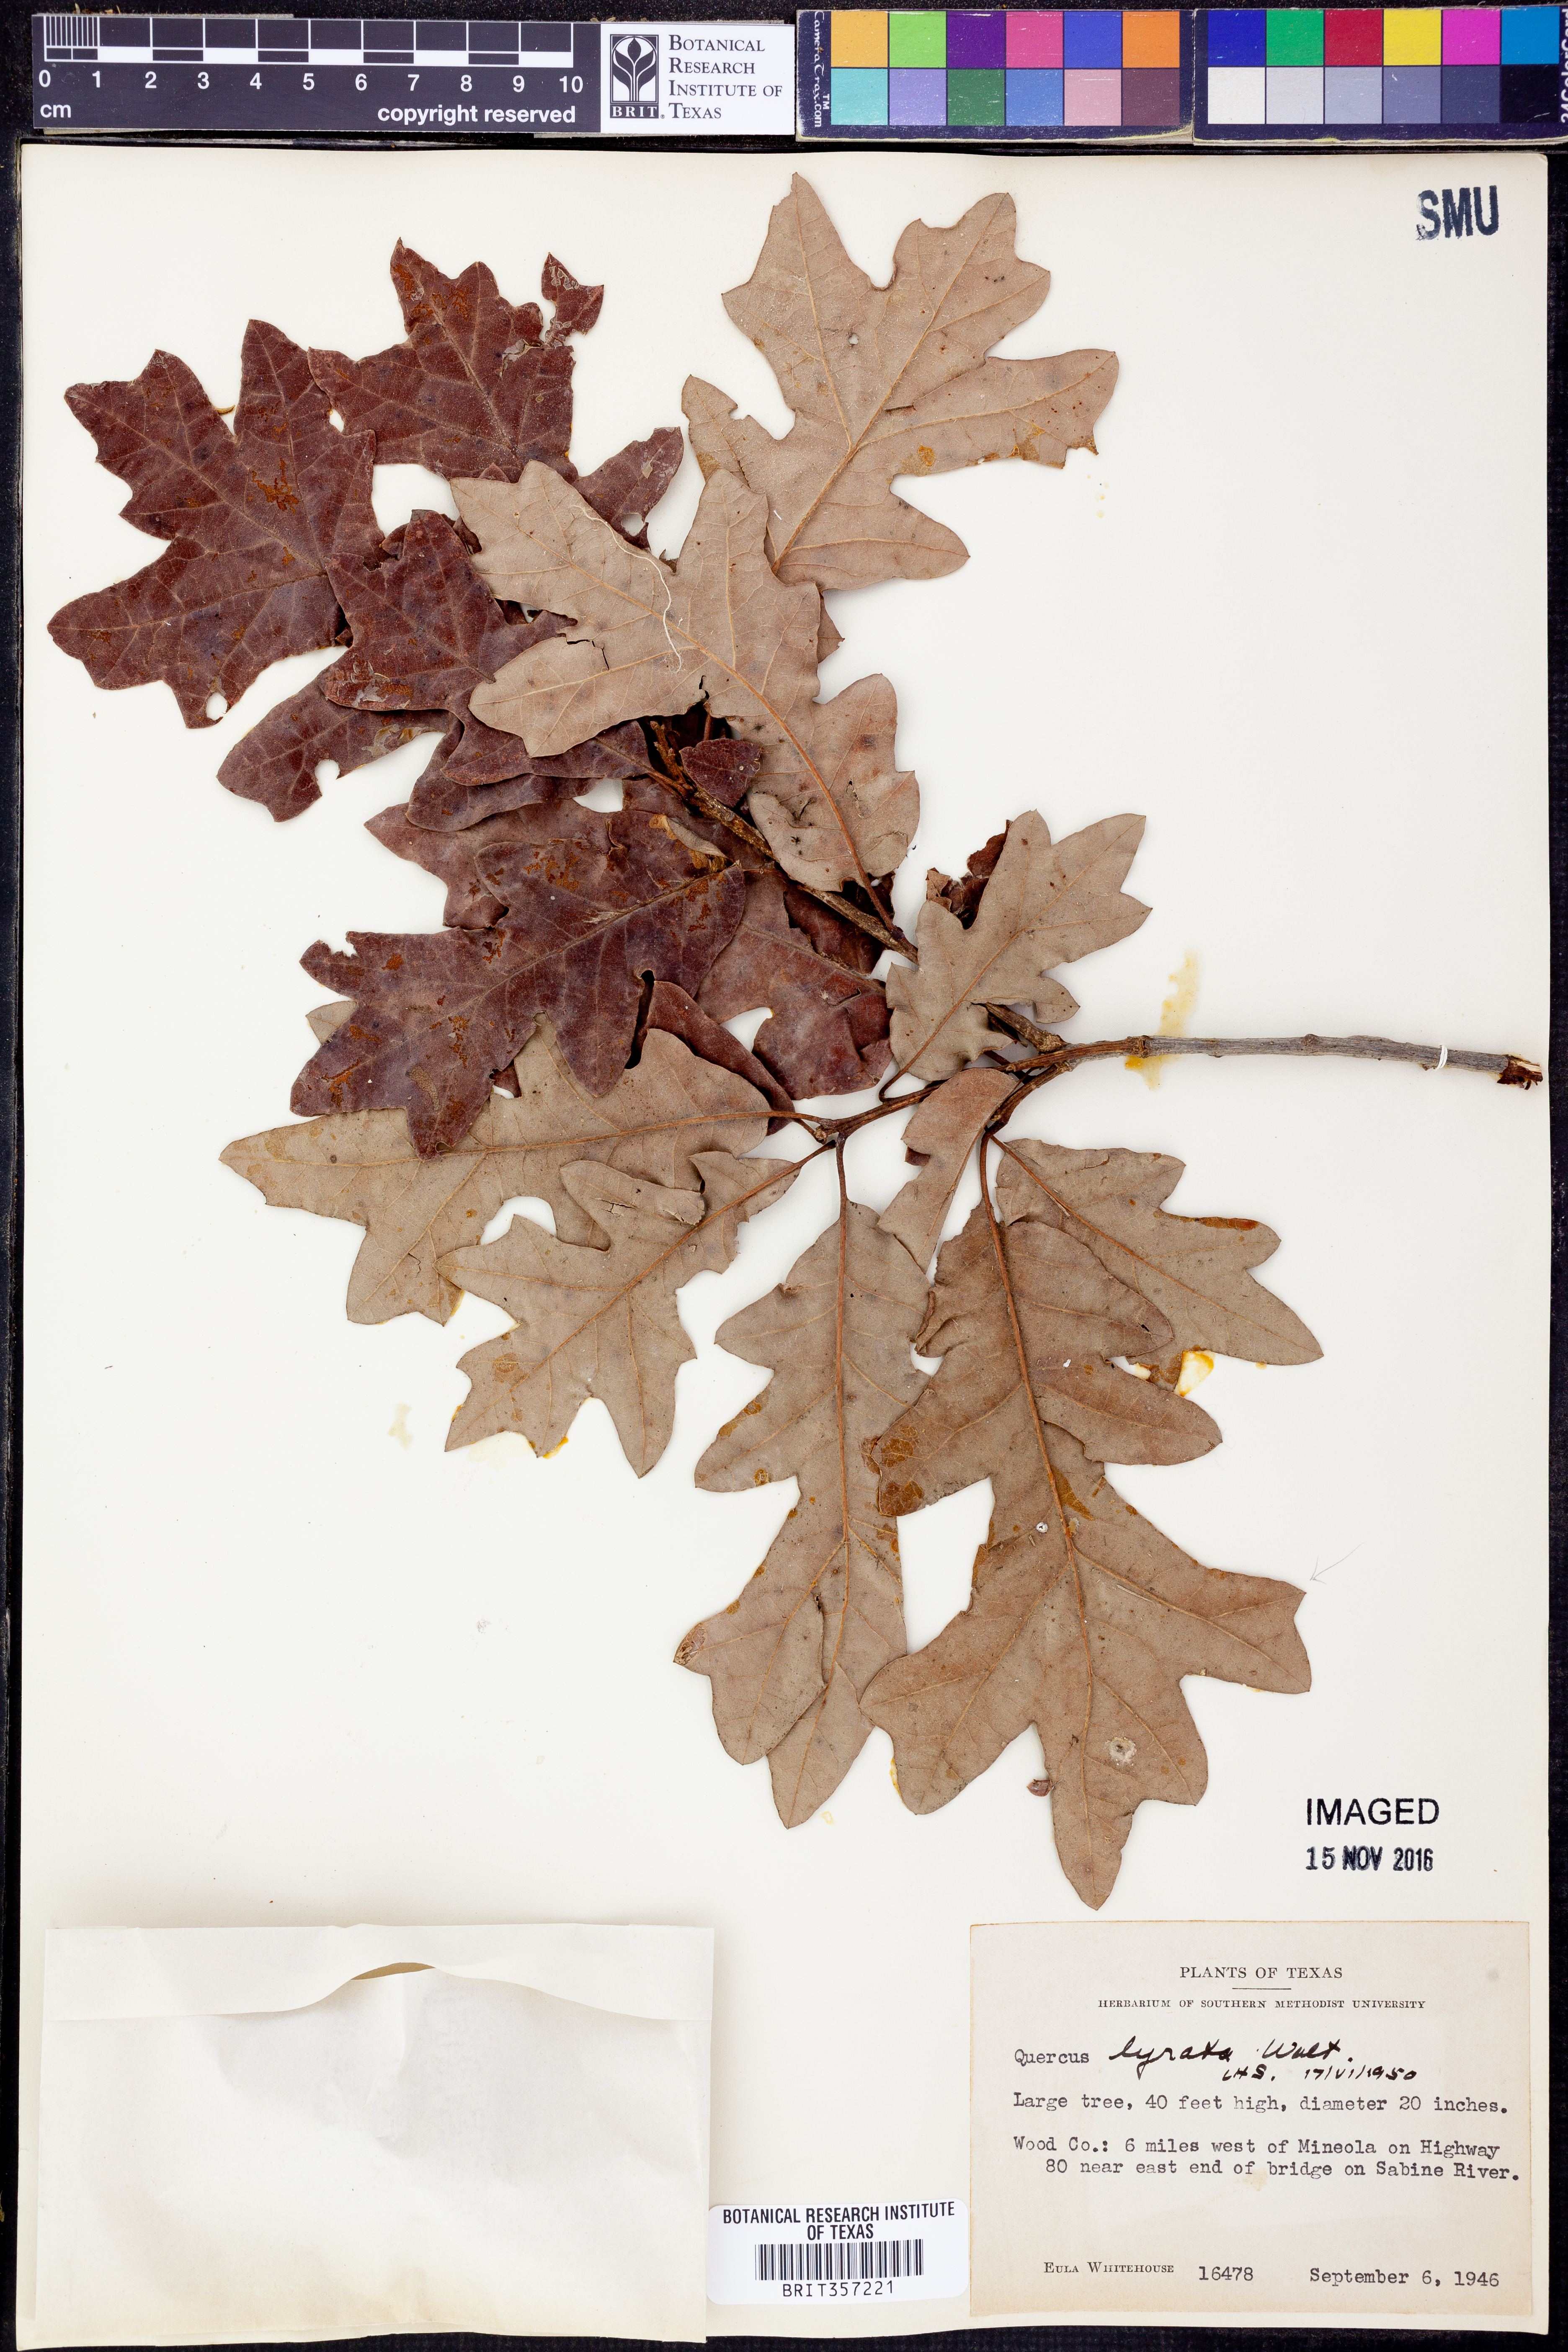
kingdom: Plantae
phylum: Tracheophyta
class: Magnoliopsida
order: Fagales
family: Fagaceae
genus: Quercus
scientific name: Quercus lyrata
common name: Overcup oak
